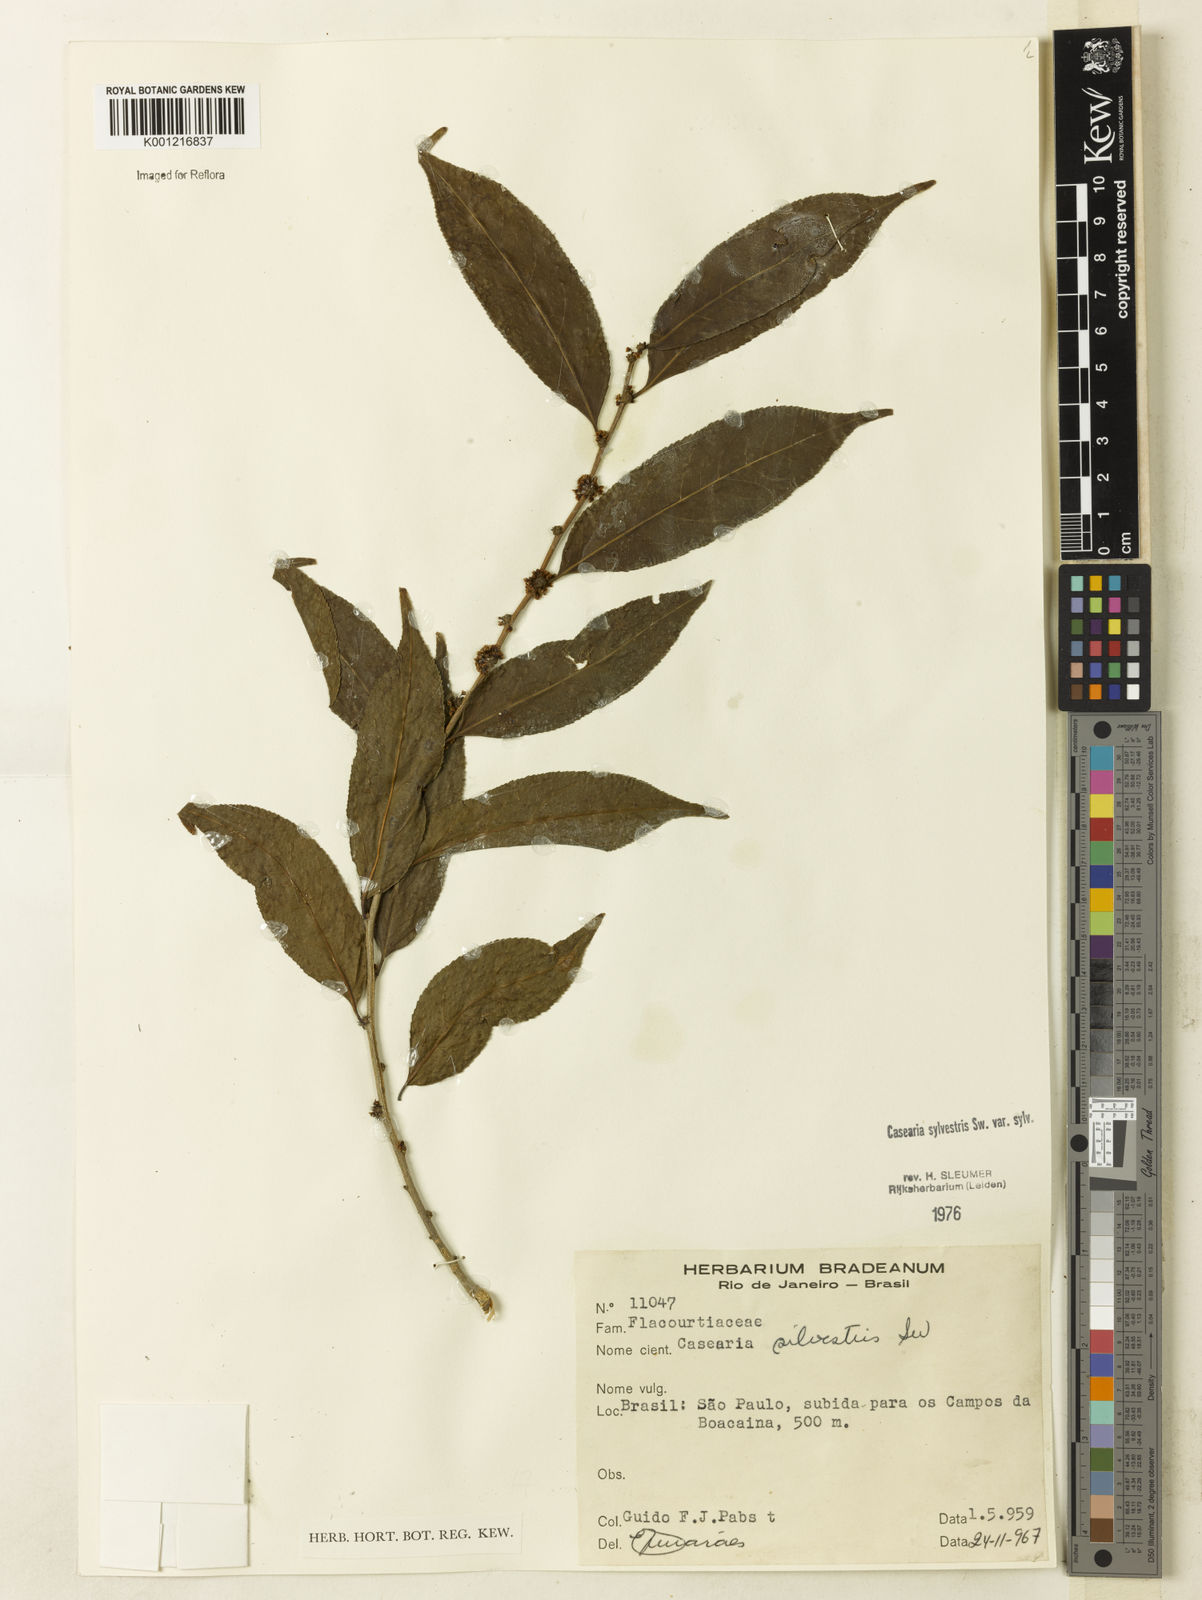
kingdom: Plantae
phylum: Tracheophyta
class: Magnoliopsida
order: Malpighiales
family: Salicaceae
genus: Casearia
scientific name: Casearia sylvestris
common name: Wild sage
